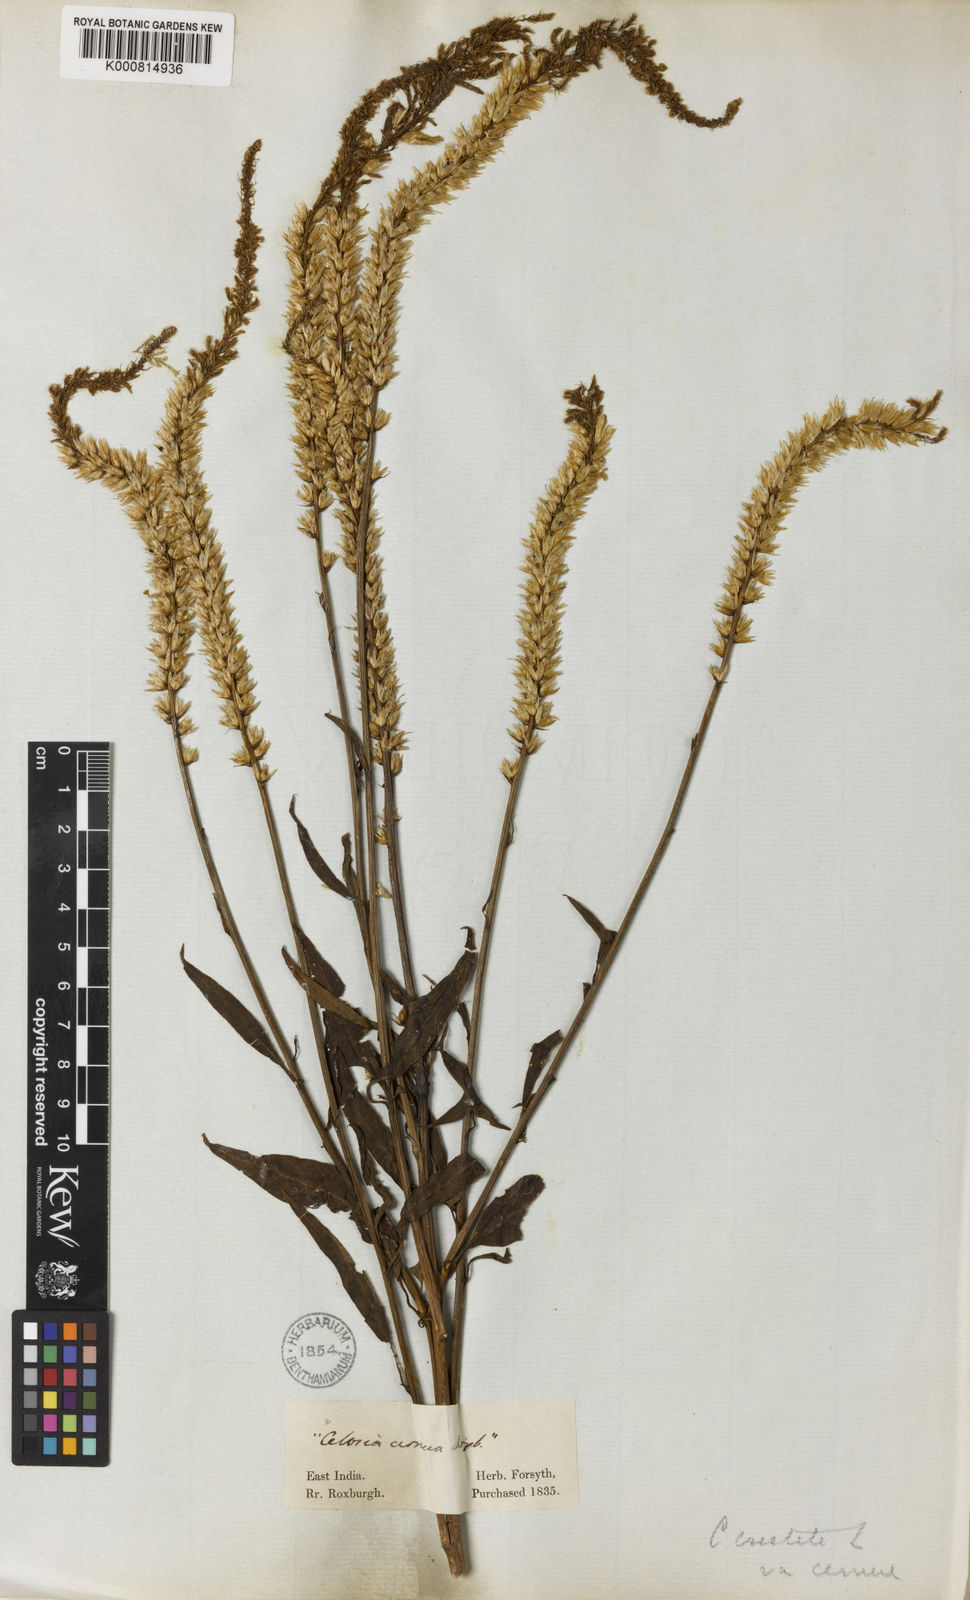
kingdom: Plantae
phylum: Tracheophyta
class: Magnoliopsida
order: Caryophyllales
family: Amaranthaceae
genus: Celosia
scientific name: Celosia argentea
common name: Feather cockscomb
